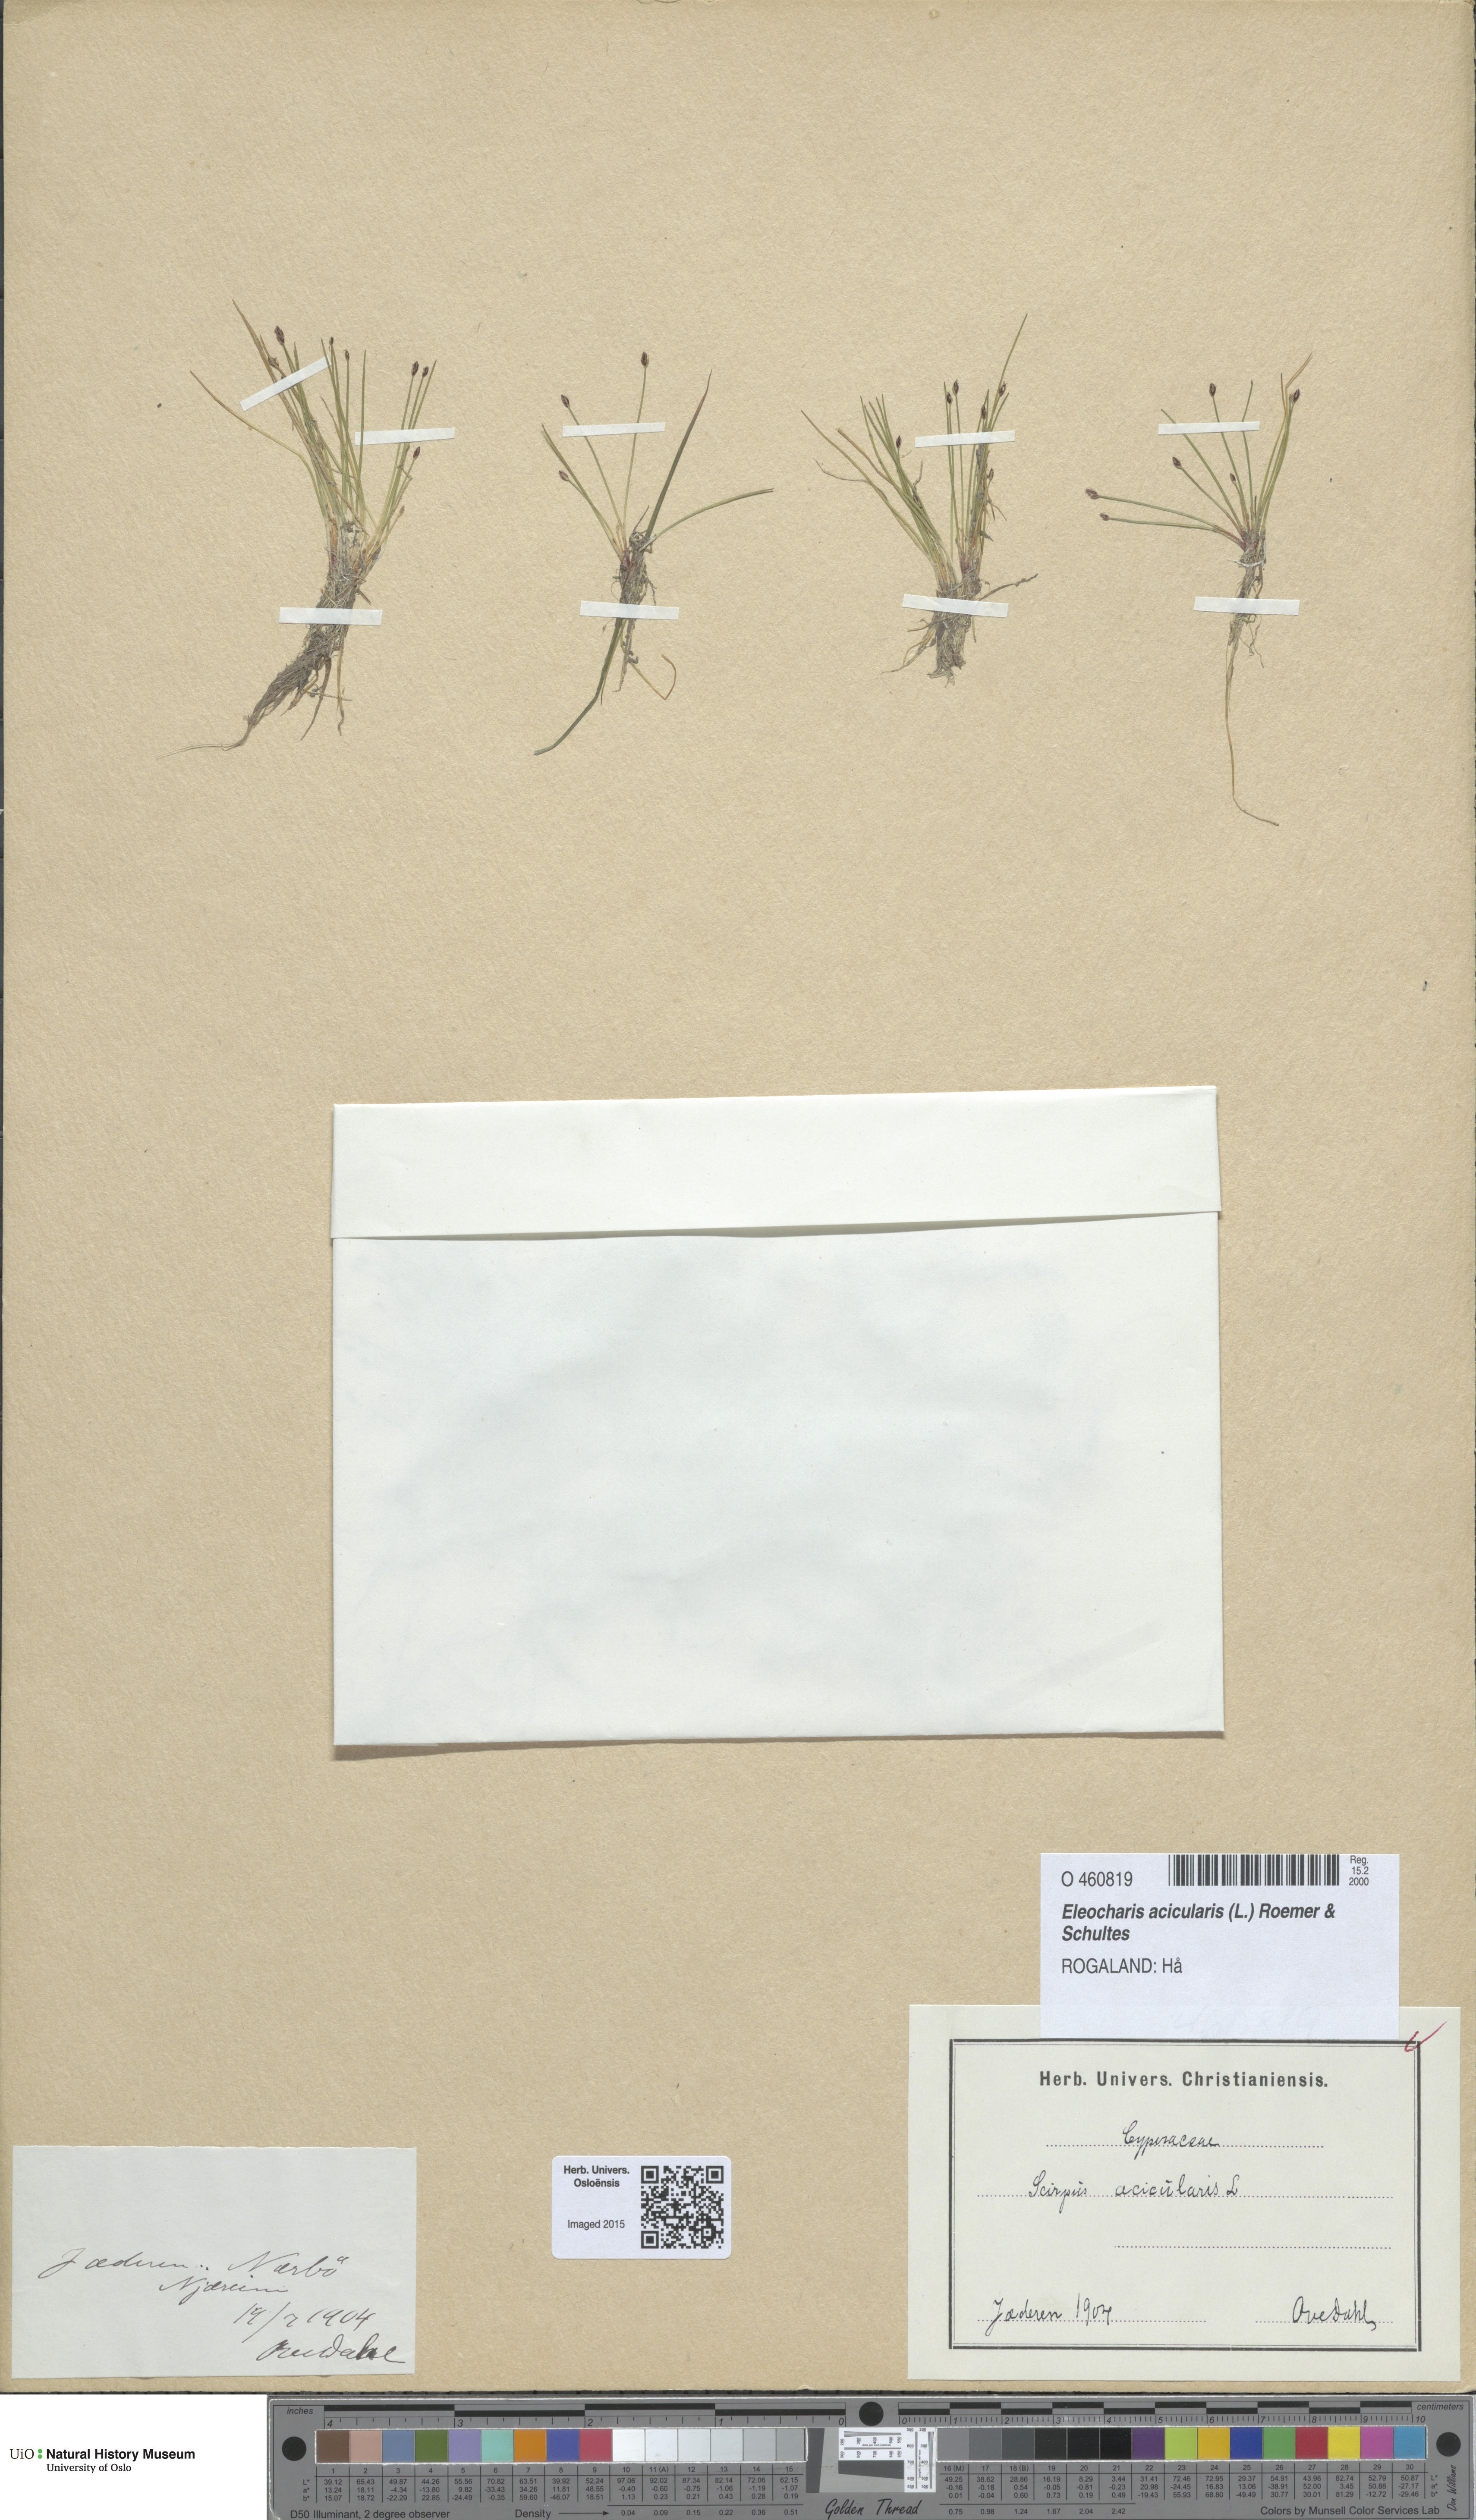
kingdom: Plantae
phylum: Tracheophyta
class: Liliopsida
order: Poales
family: Cyperaceae
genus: Eleocharis
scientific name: Eleocharis acicularis
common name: Needle spike-rush
